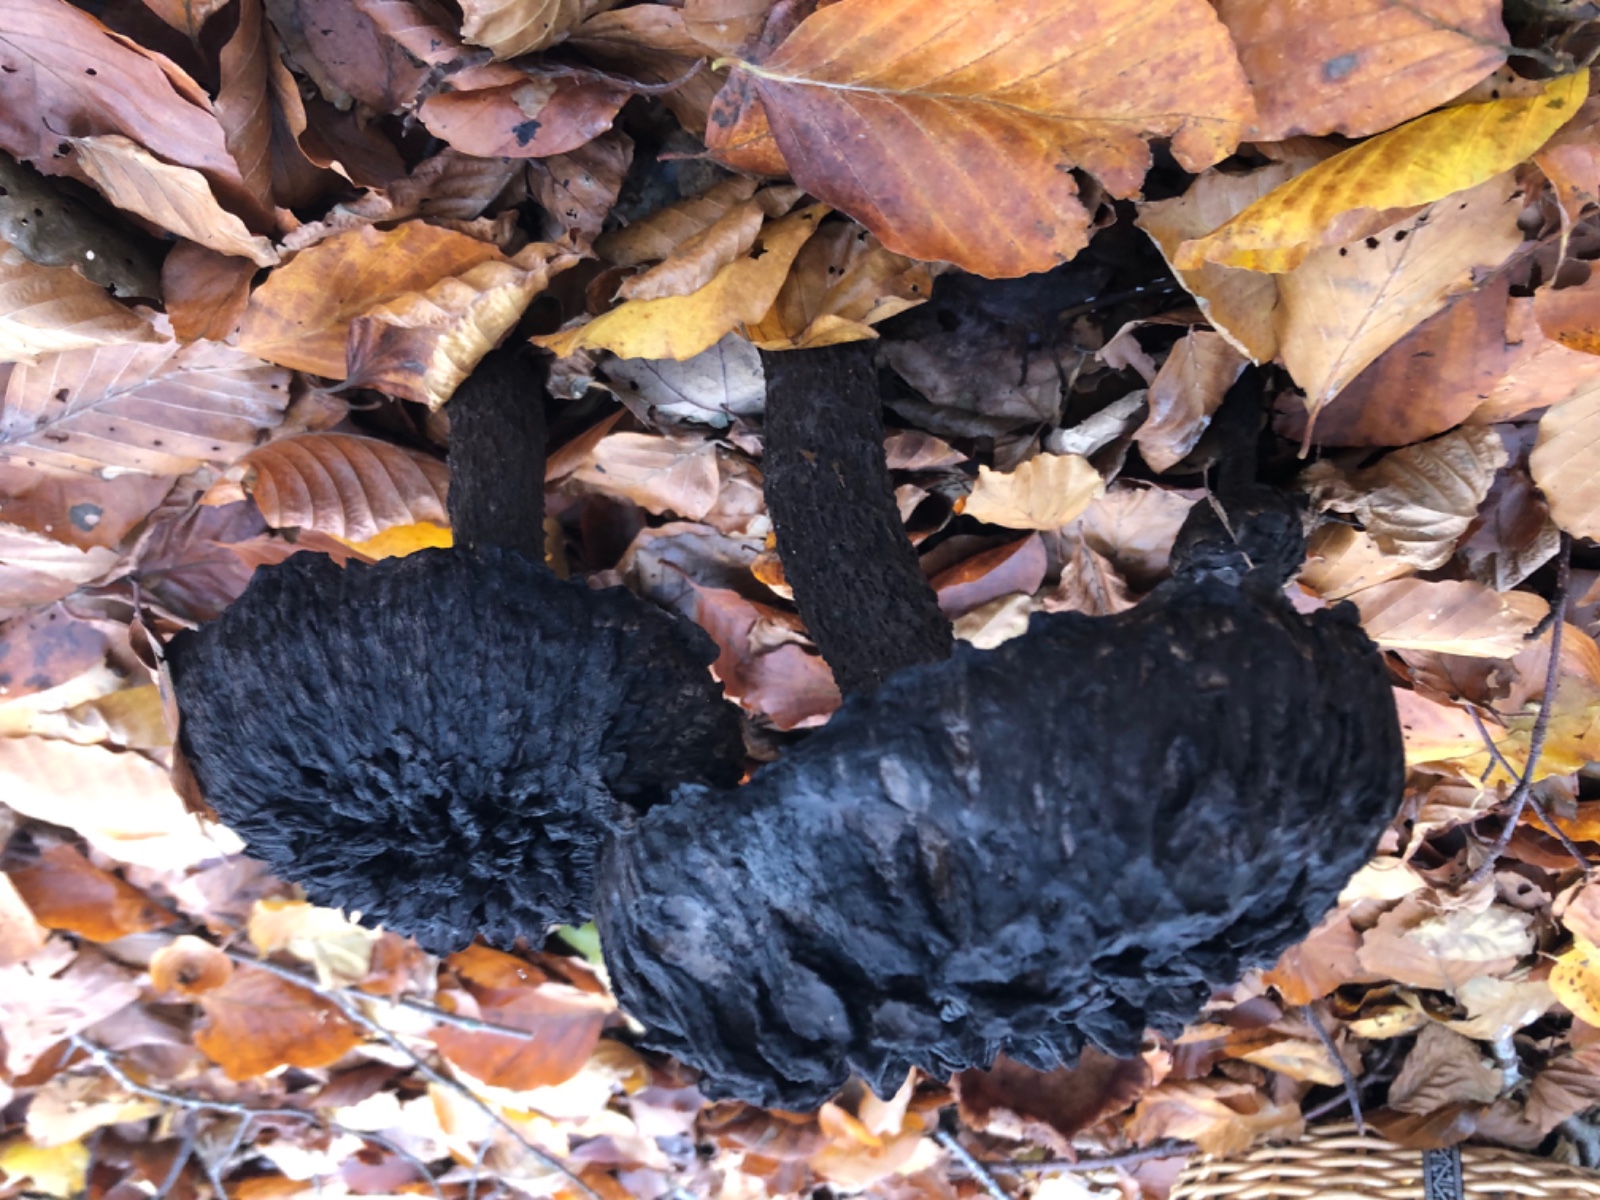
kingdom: Fungi
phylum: Basidiomycota
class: Agaricomycetes
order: Boletales
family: Boletaceae
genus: Strobilomyces
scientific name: Strobilomyces strobilaceus
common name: koglerørhat
